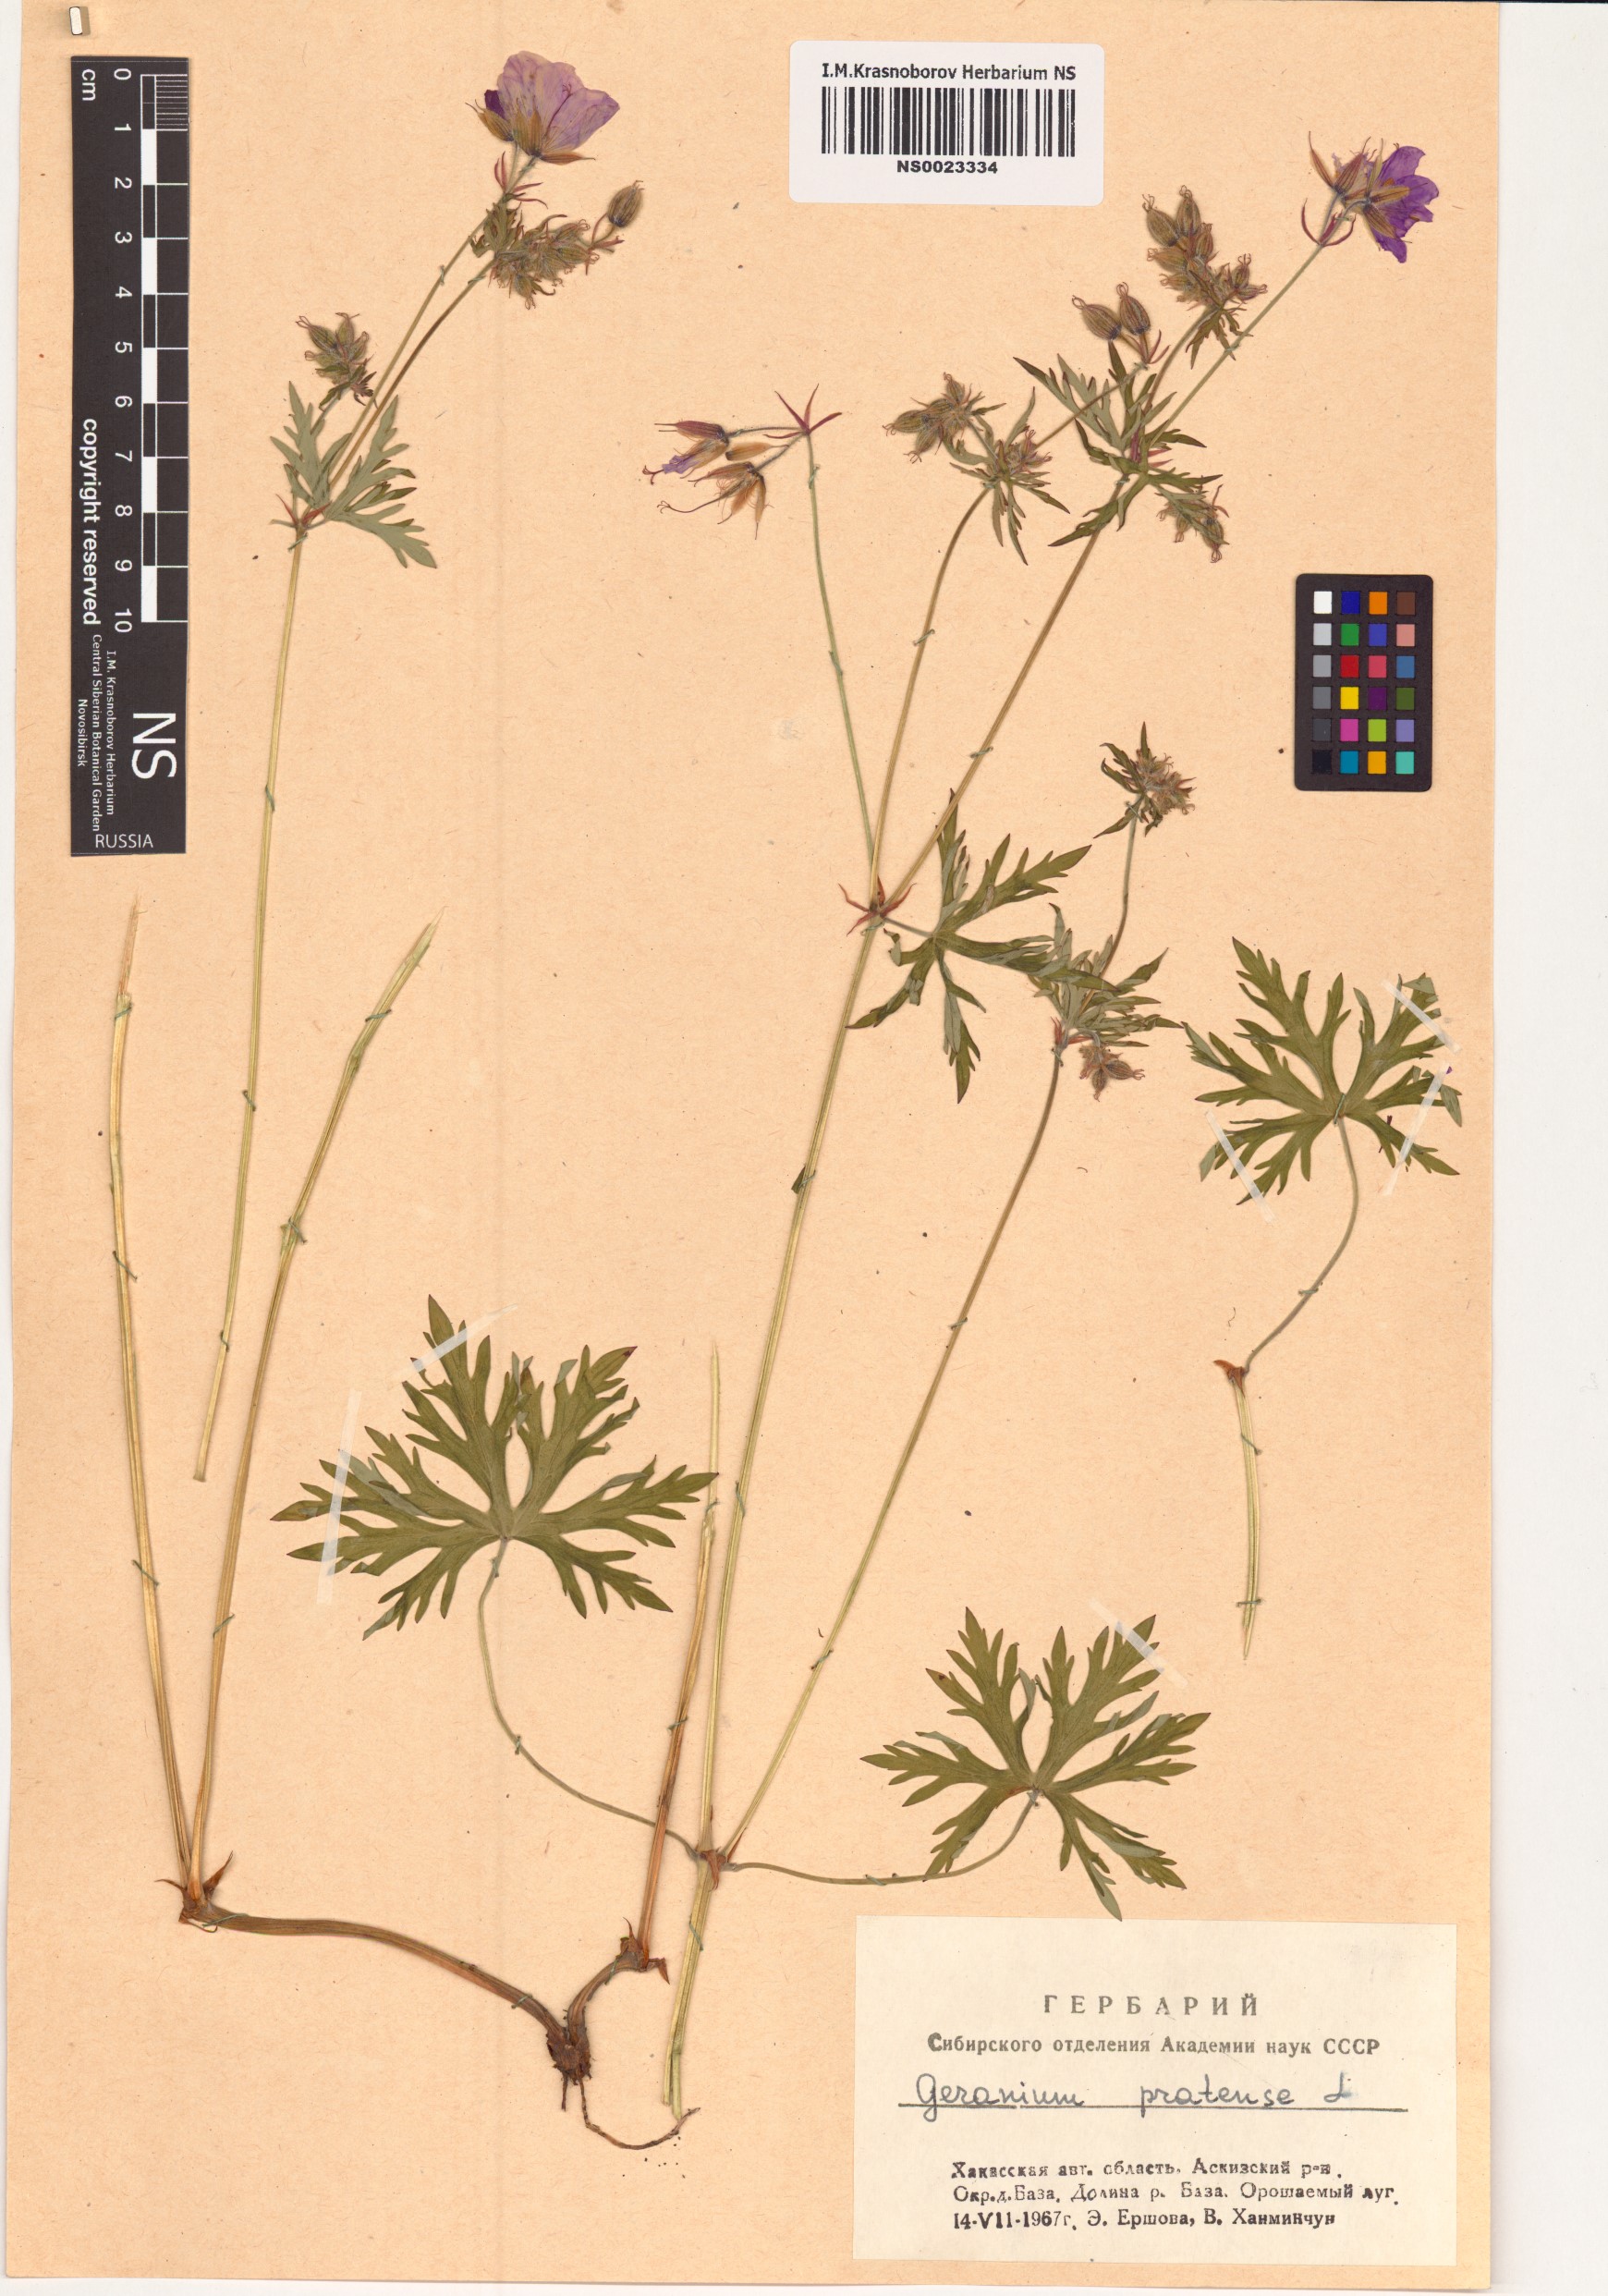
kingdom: Plantae
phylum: Tracheophyta
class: Magnoliopsida
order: Geraniales
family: Geraniaceae
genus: Geranium
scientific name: Geranium pratense
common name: Meadow crane's-bill
